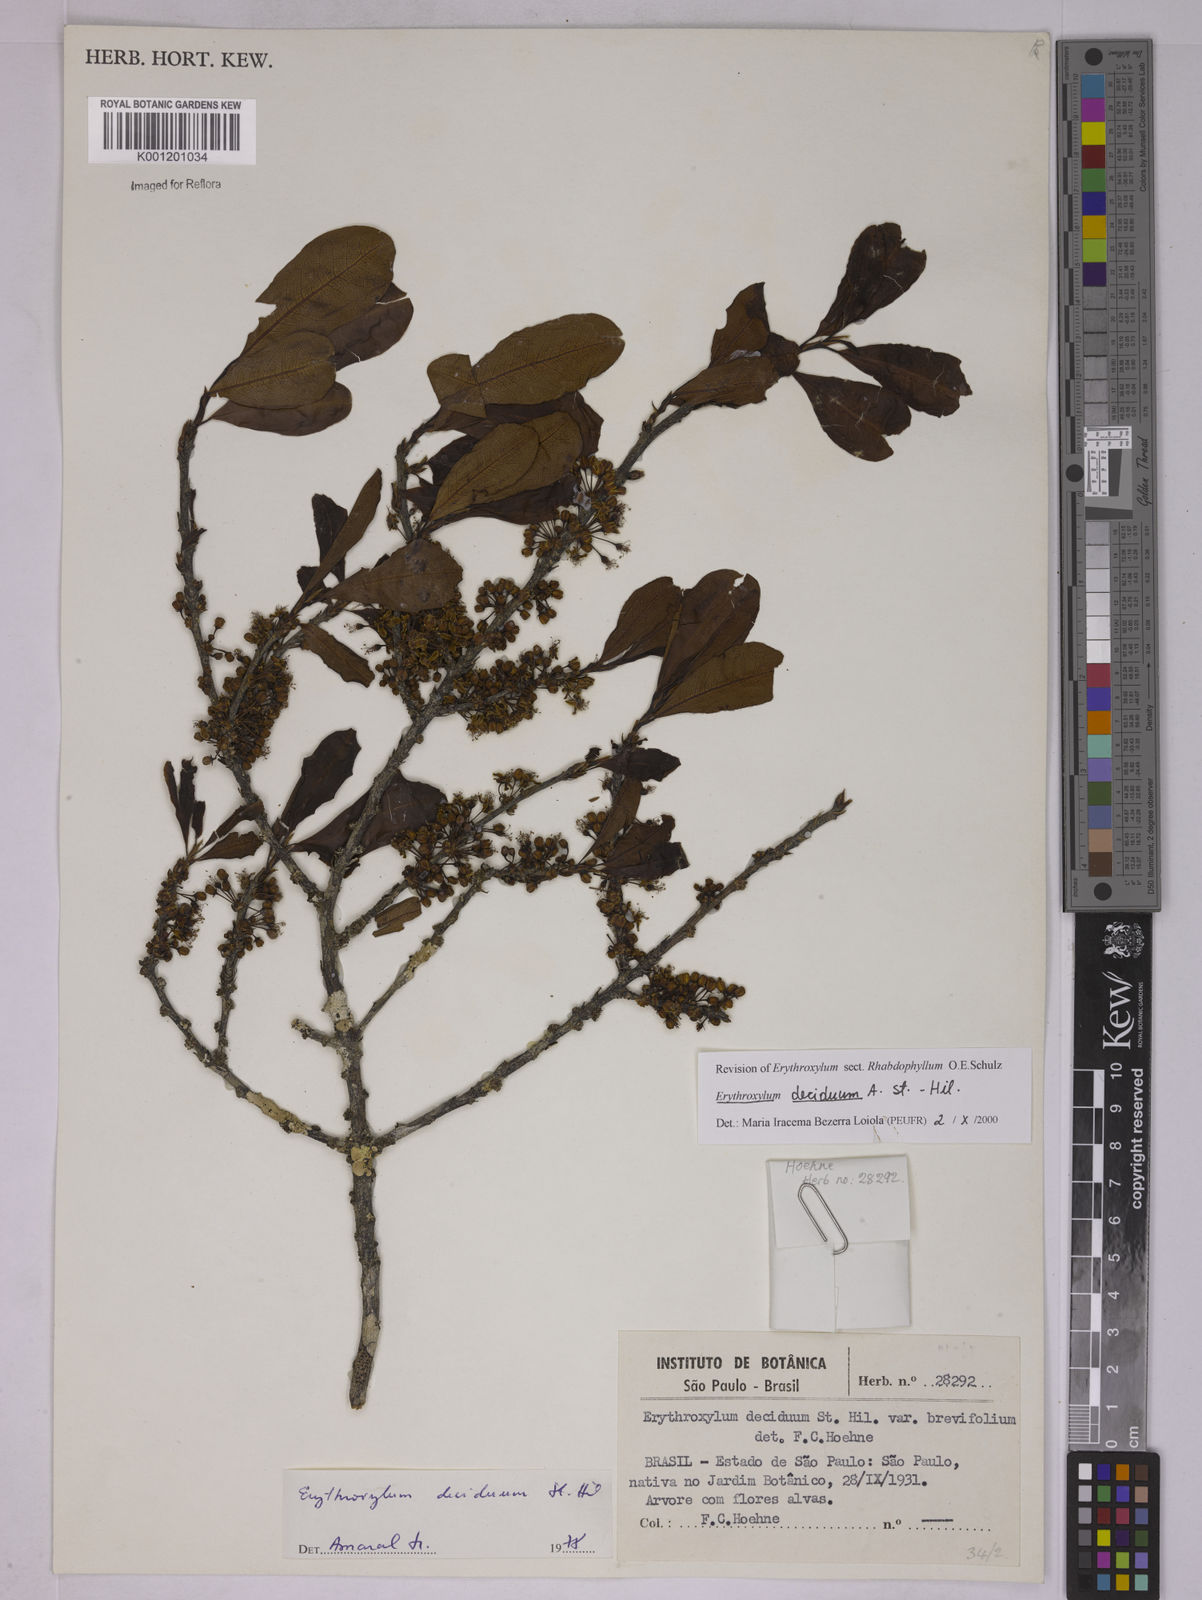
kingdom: Plantae
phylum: Tracheophyta
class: Magnoliopsida
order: Malpighiales
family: Erythroxylaceae
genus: Erythroxylum
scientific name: Erythroxylum deciduum
